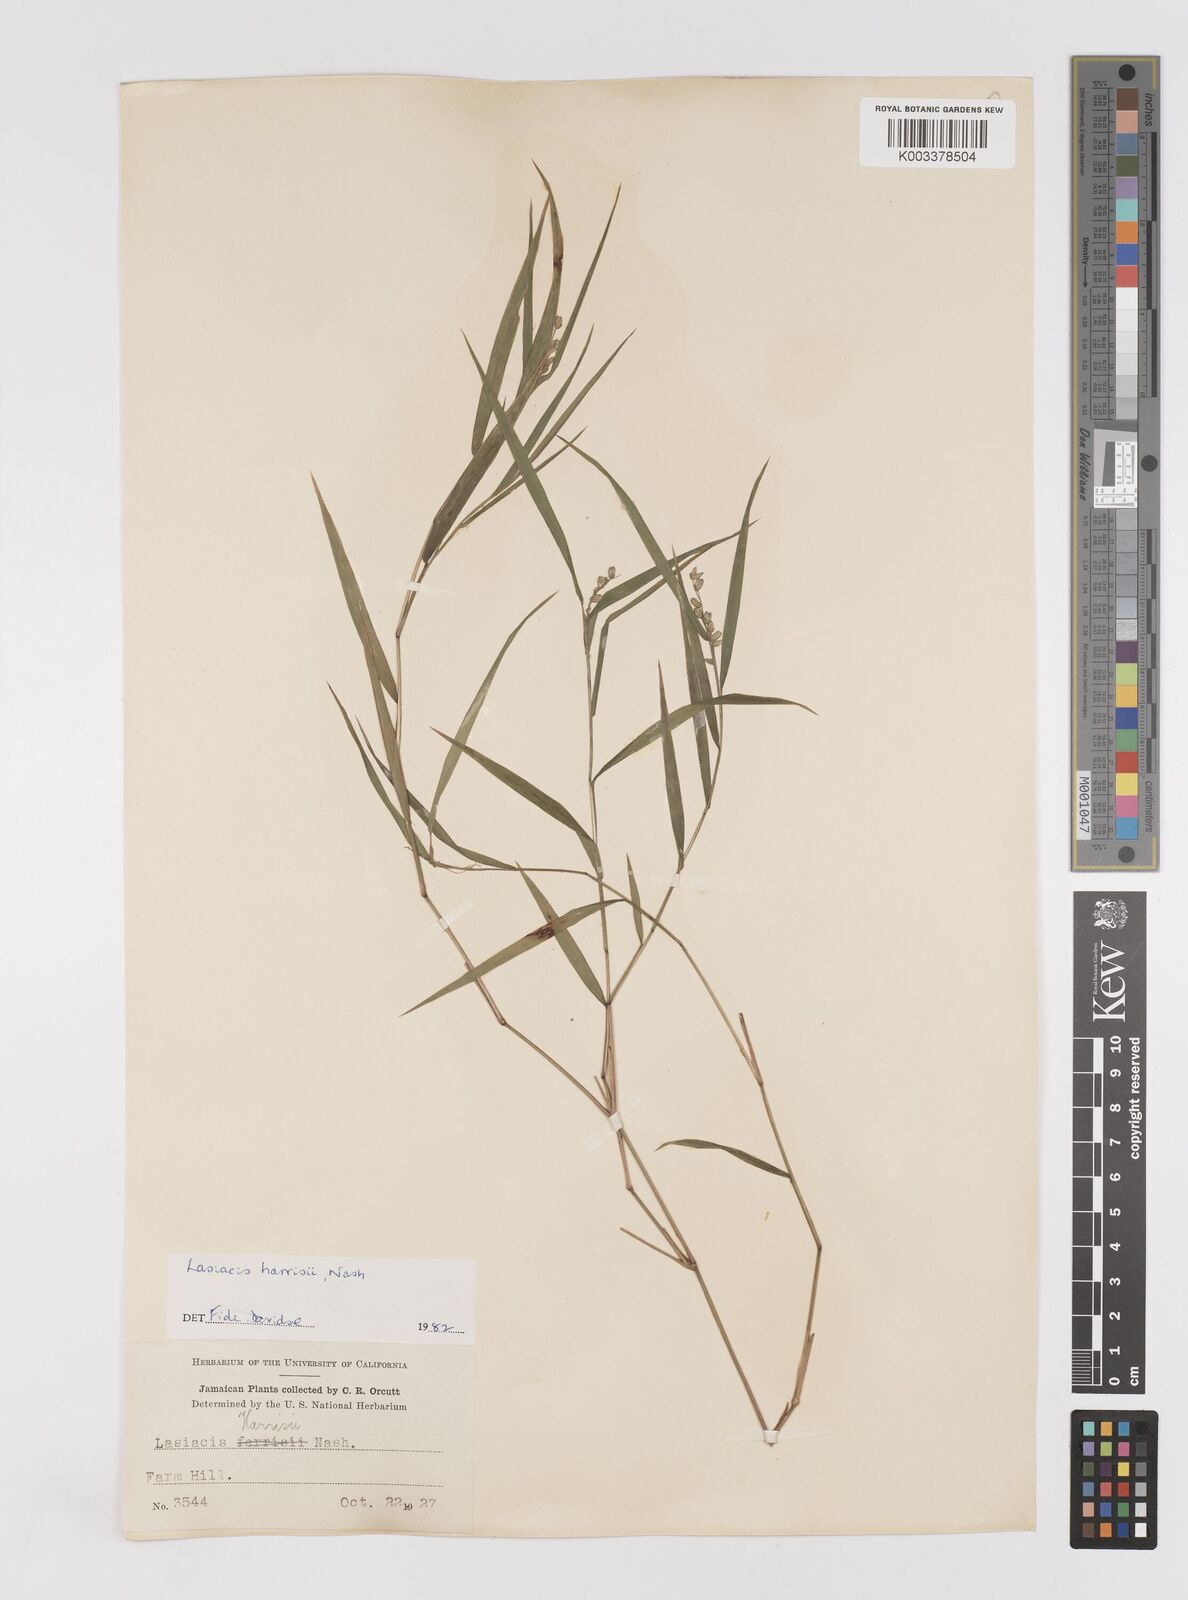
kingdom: Plantae
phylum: Tracheophyta
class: Liliopsida
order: Poales
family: Poaceae
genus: Lasiacis
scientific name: Lasiacis divaricata
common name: Smallcane
